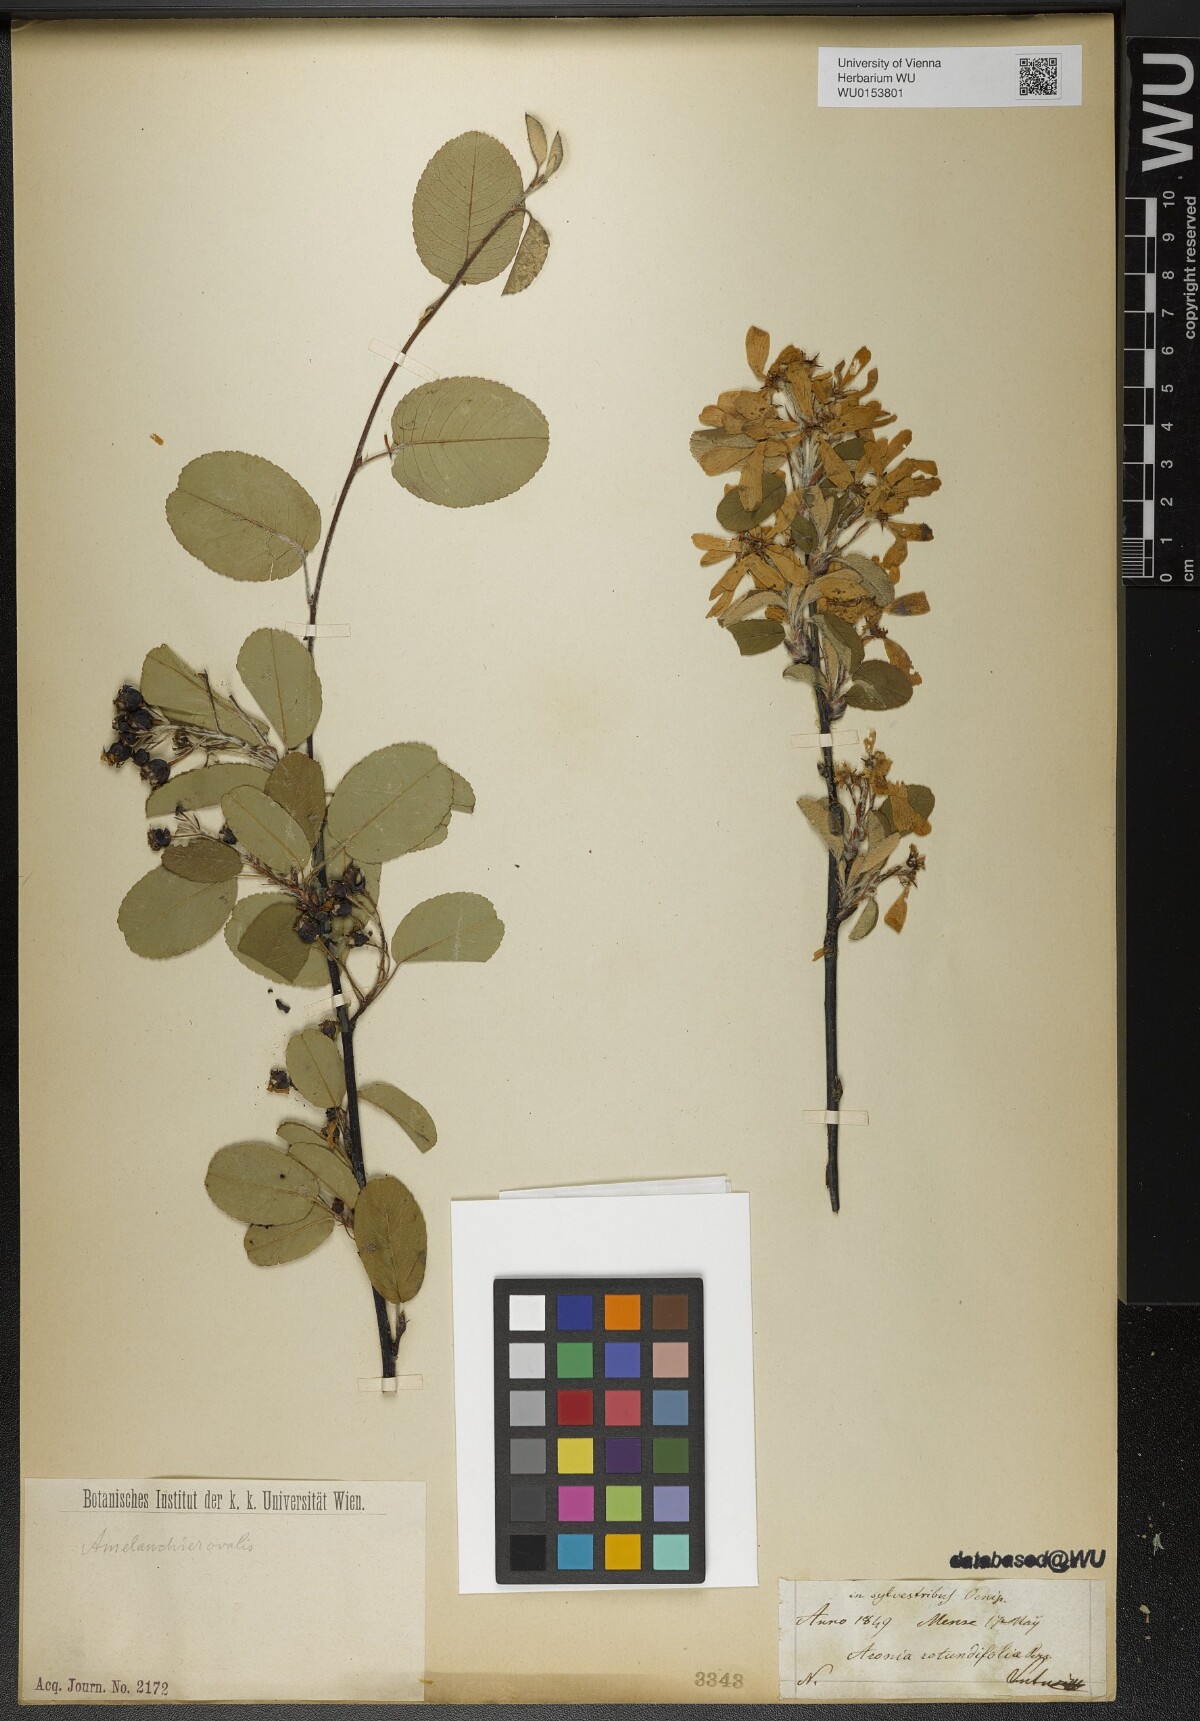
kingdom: Plantae
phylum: Tracheophyta
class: Magnoliopsida
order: Rosales
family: Rosaceae
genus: Amelanchier
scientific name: Amelanchier ovalis
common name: Serviceberry
